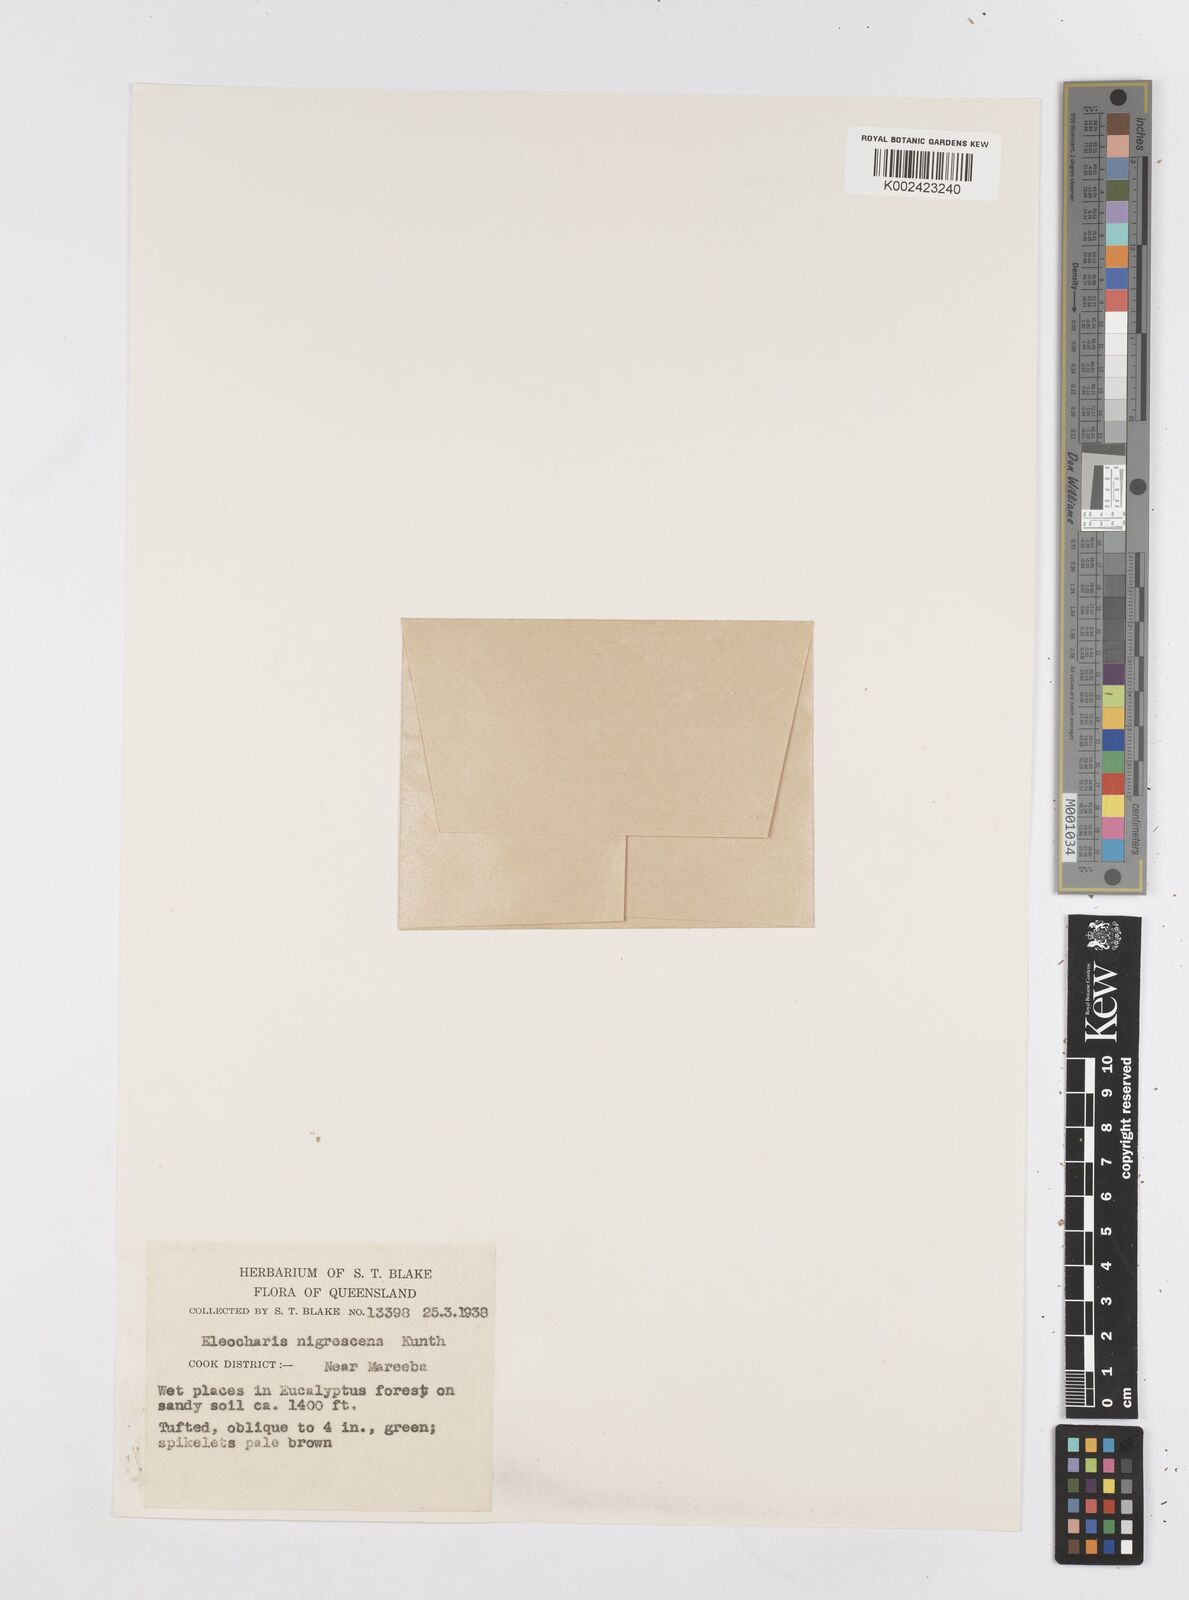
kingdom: Plantae
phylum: Tracheophyta
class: Liliopsida
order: Poales
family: Cyperaceae
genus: Eleocharis
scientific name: Eleocharis nigrescens
